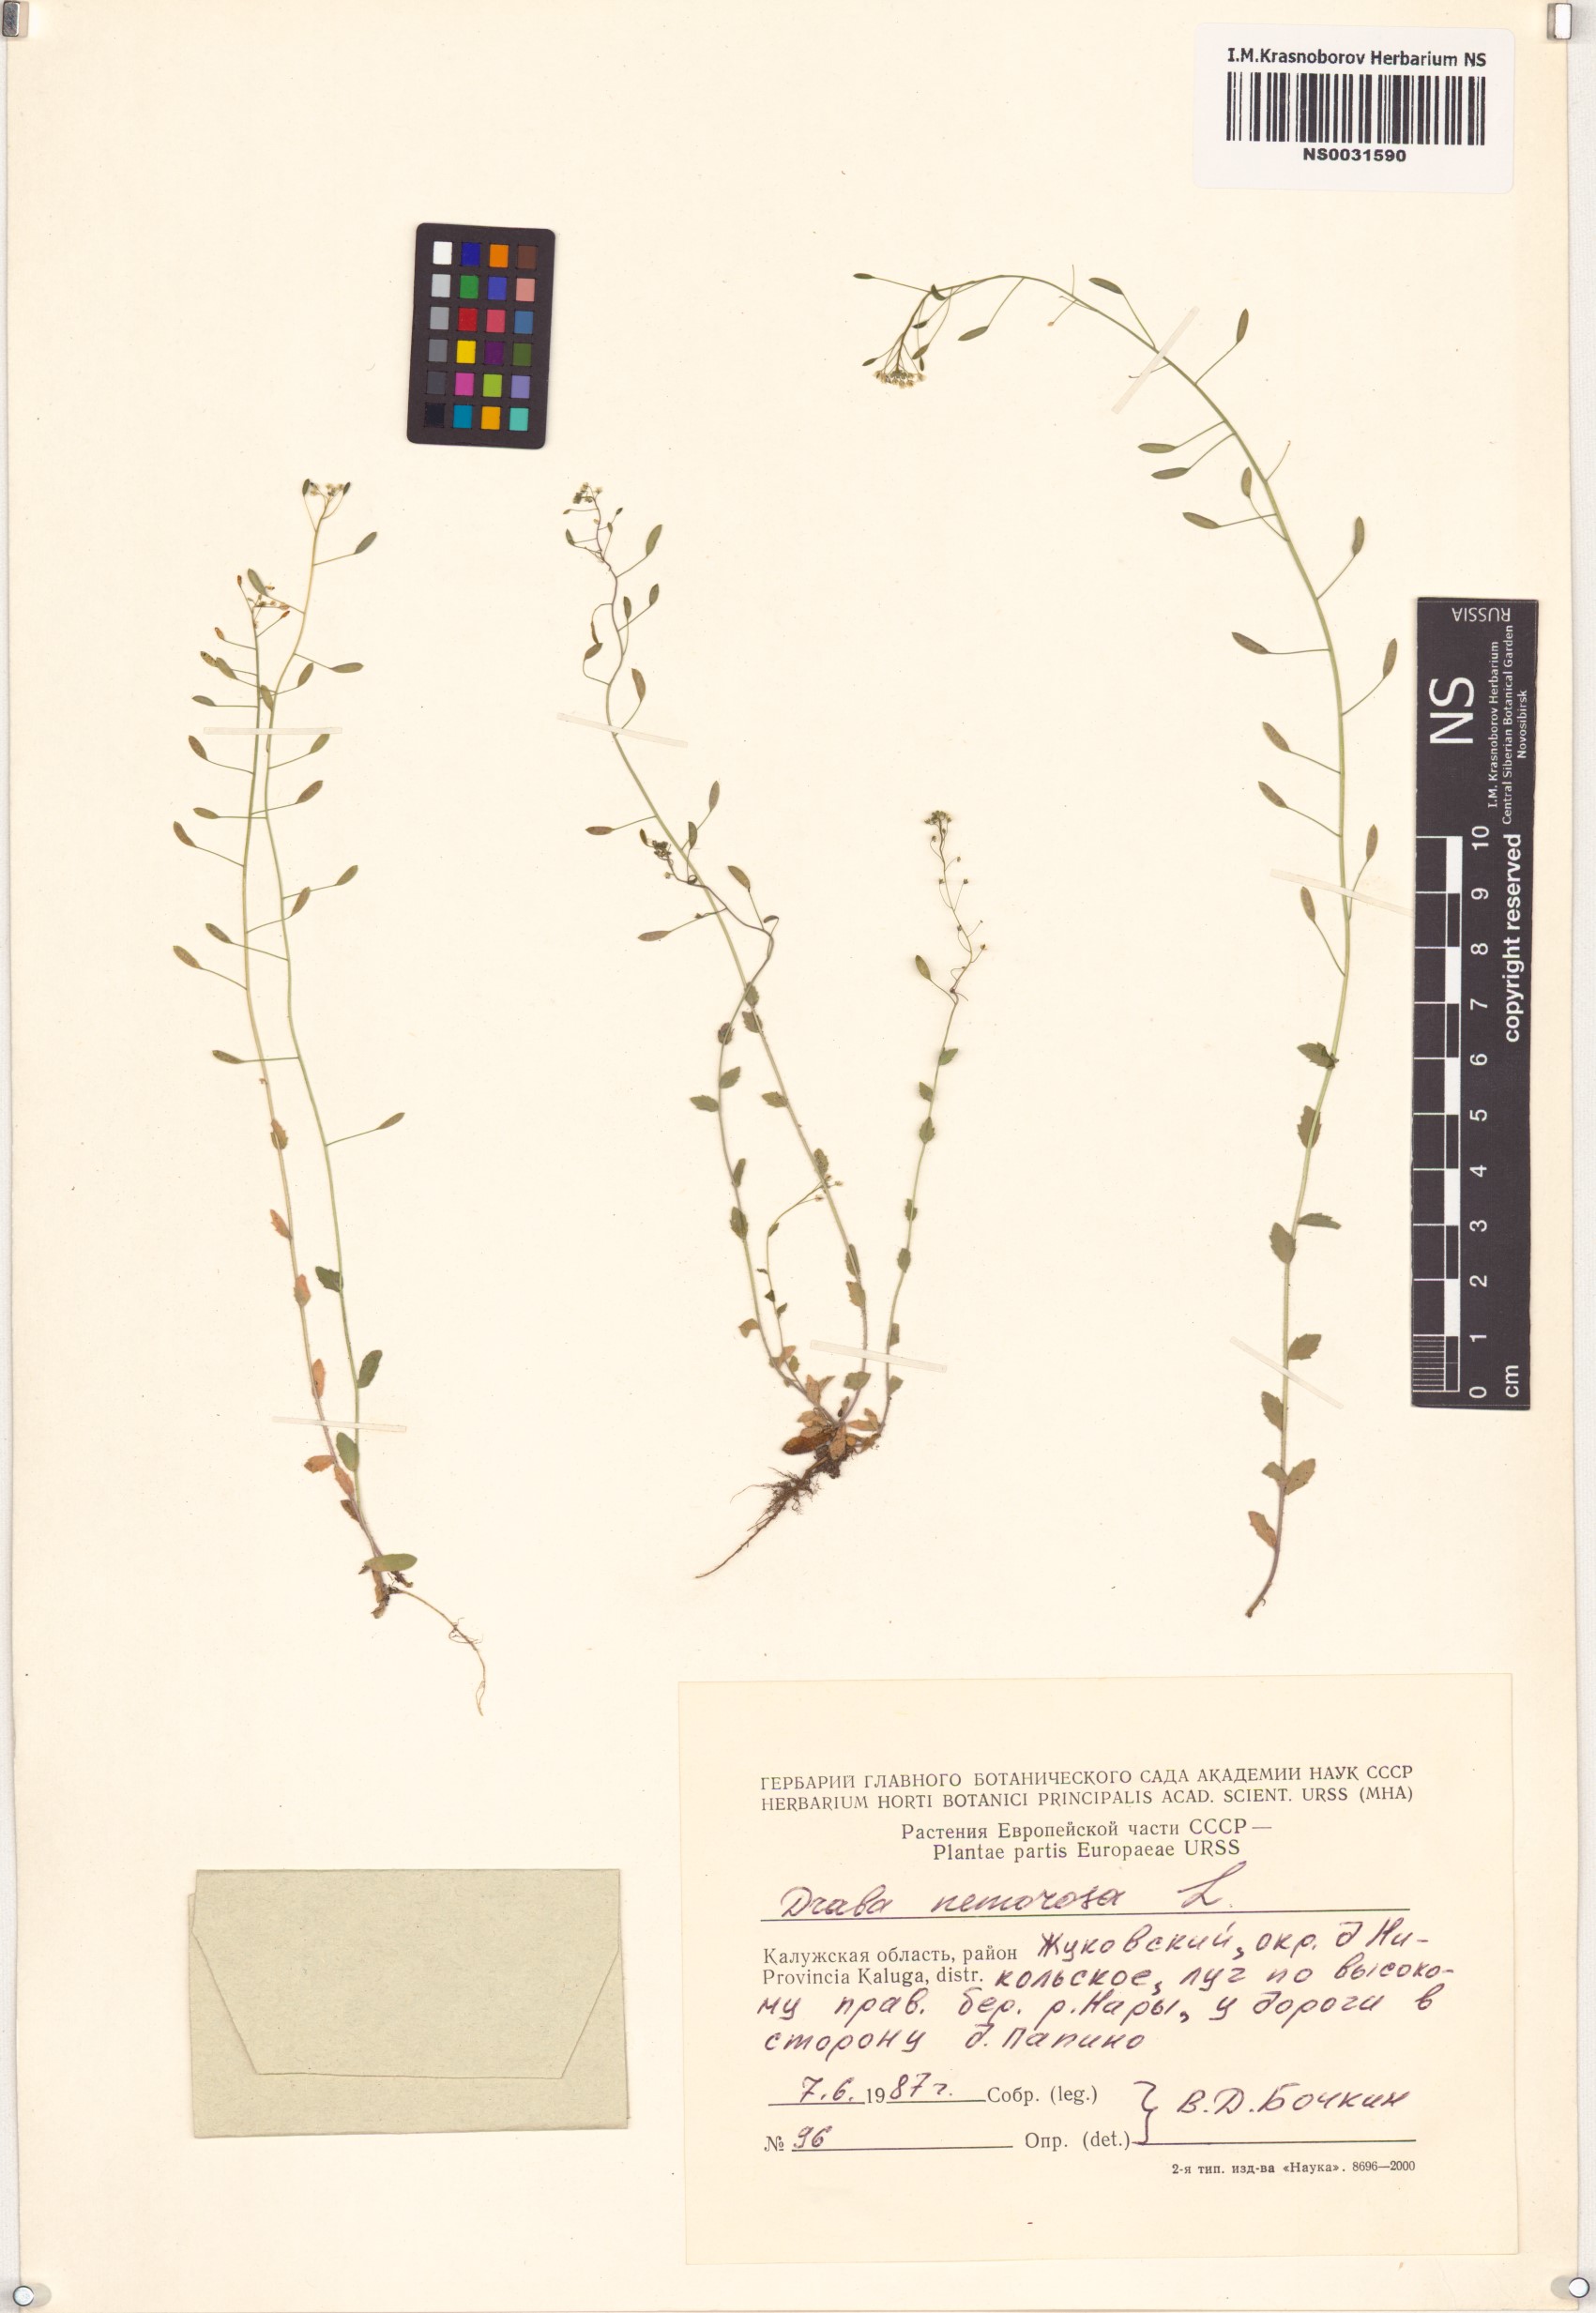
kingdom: Plantae
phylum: Tracheophyta
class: Magnoliopsida
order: Brassicales
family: Brassicaceae
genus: Draba
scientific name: Draba nemorosa
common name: Wood whitlow-grass
